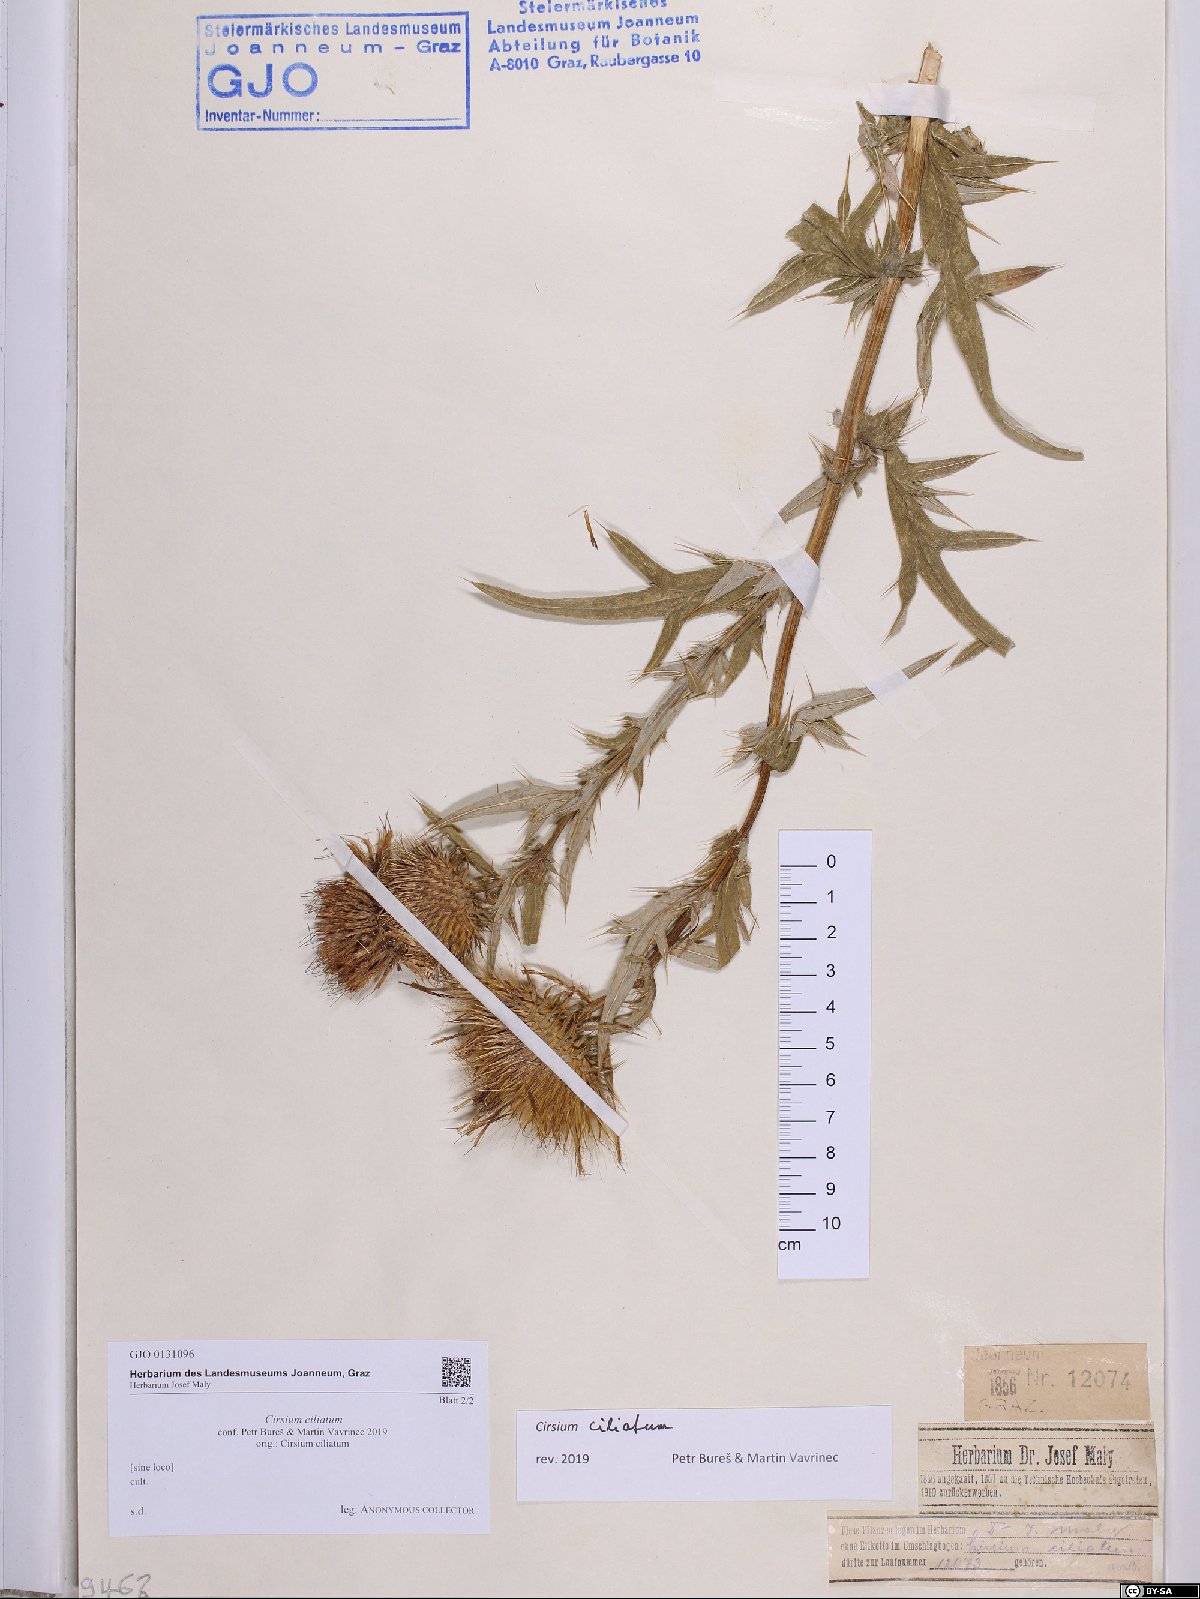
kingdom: Plantae
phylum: Tracheophyta
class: Magnoliopsida
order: Asterales
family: Asteraceae
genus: Lophiolepis
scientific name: Lophiolepis ciliata
